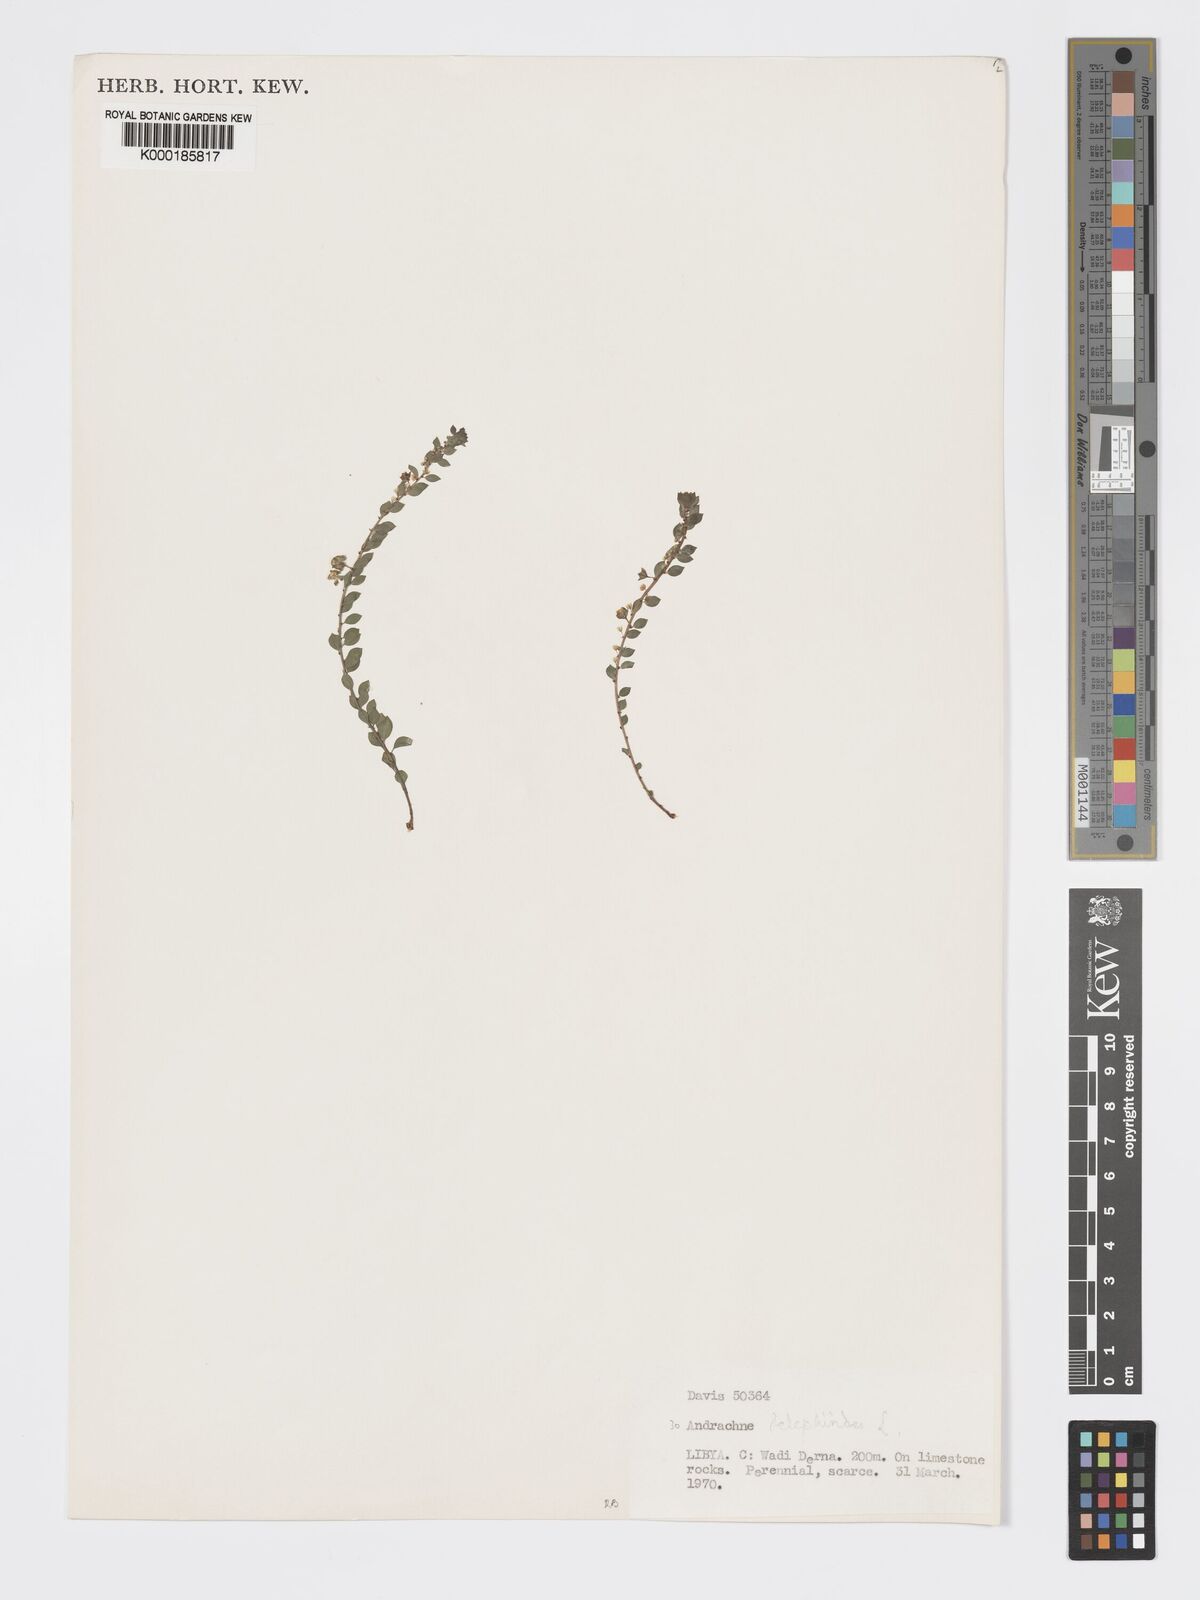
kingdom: Plantae
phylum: Tracheophyta
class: Magnoliopsida
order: Malpighiales
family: Phyllanthaceae
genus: Andrachne
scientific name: Andrachne telephioides
